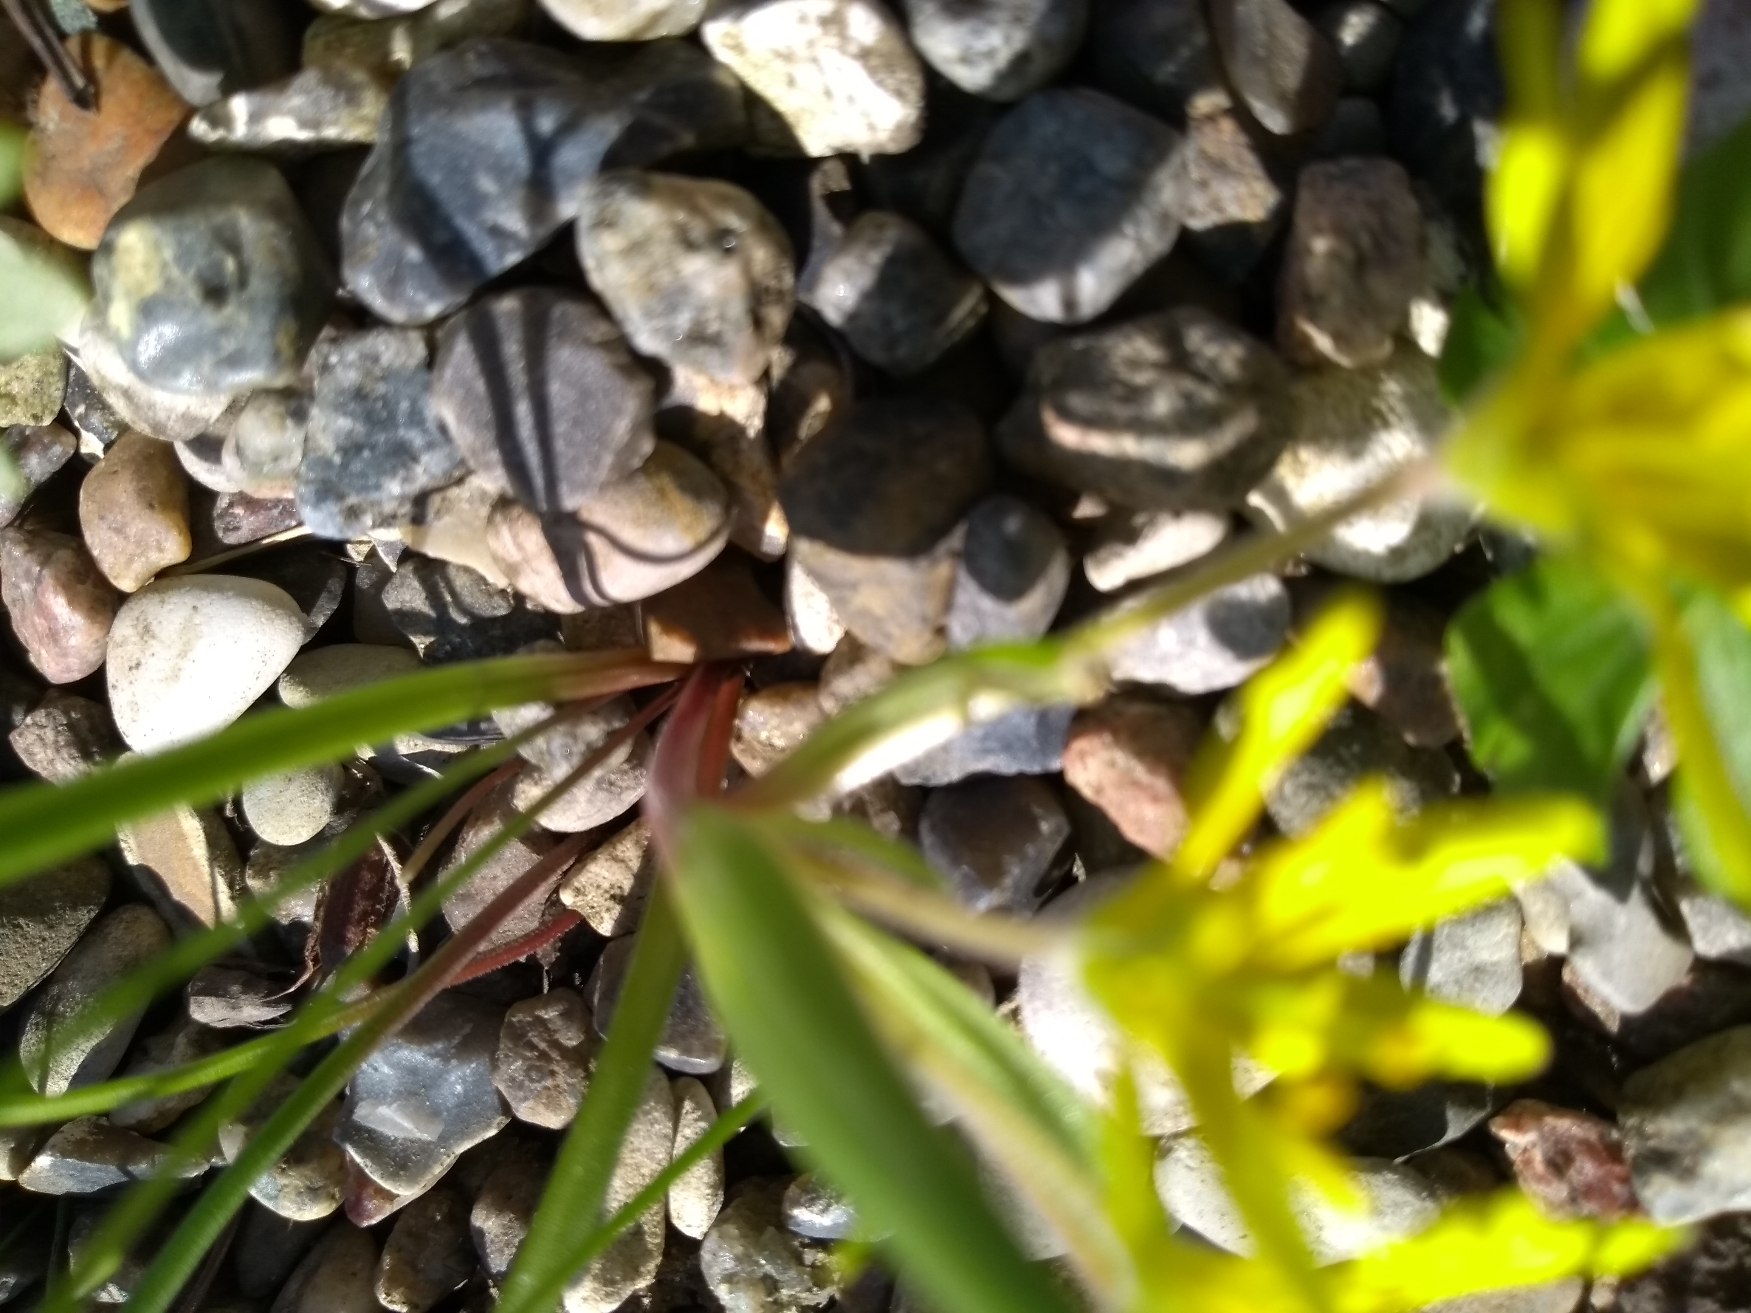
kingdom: Plantae
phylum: Tracheophyta
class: Liliopsida
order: Liliales
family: Liliaceae
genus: Gagea
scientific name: Gagea villosa
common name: Ager-guldstjerne
